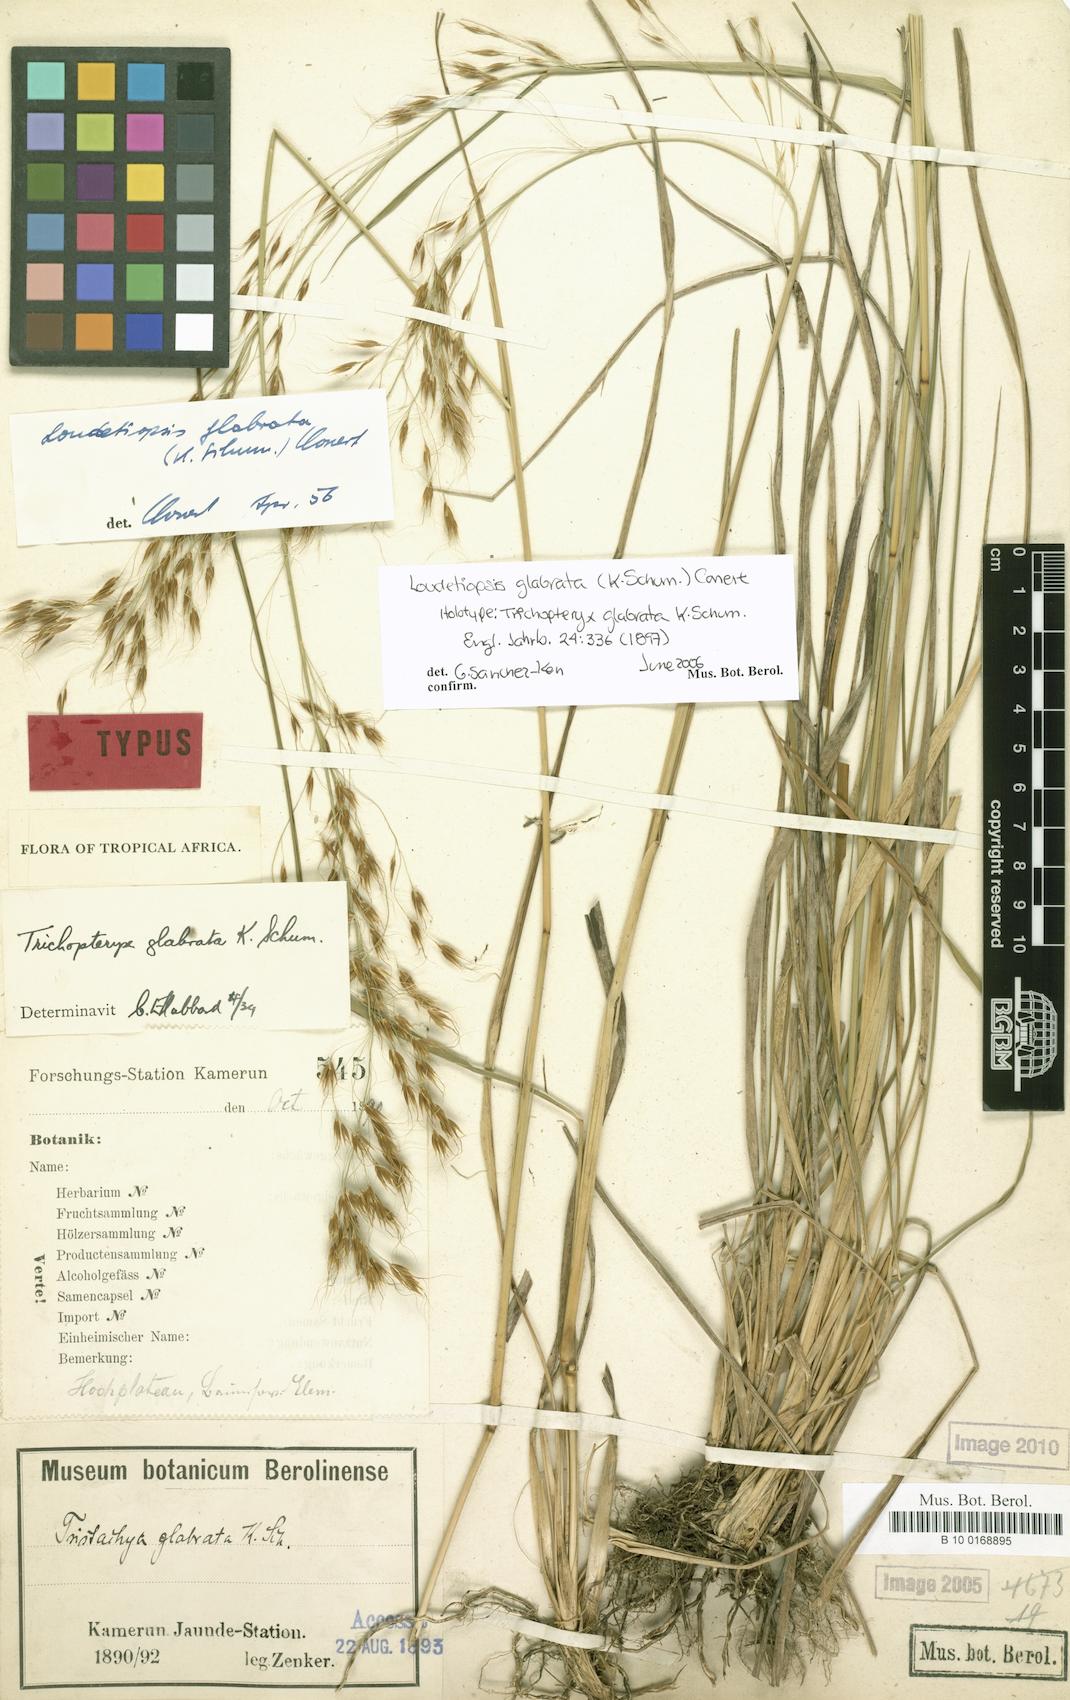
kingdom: Plantae
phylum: Tracheophyta
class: Liliopsida
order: Poales
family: Poaceae
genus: Loudetiopsis
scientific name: Loudetiopsis glabrata
